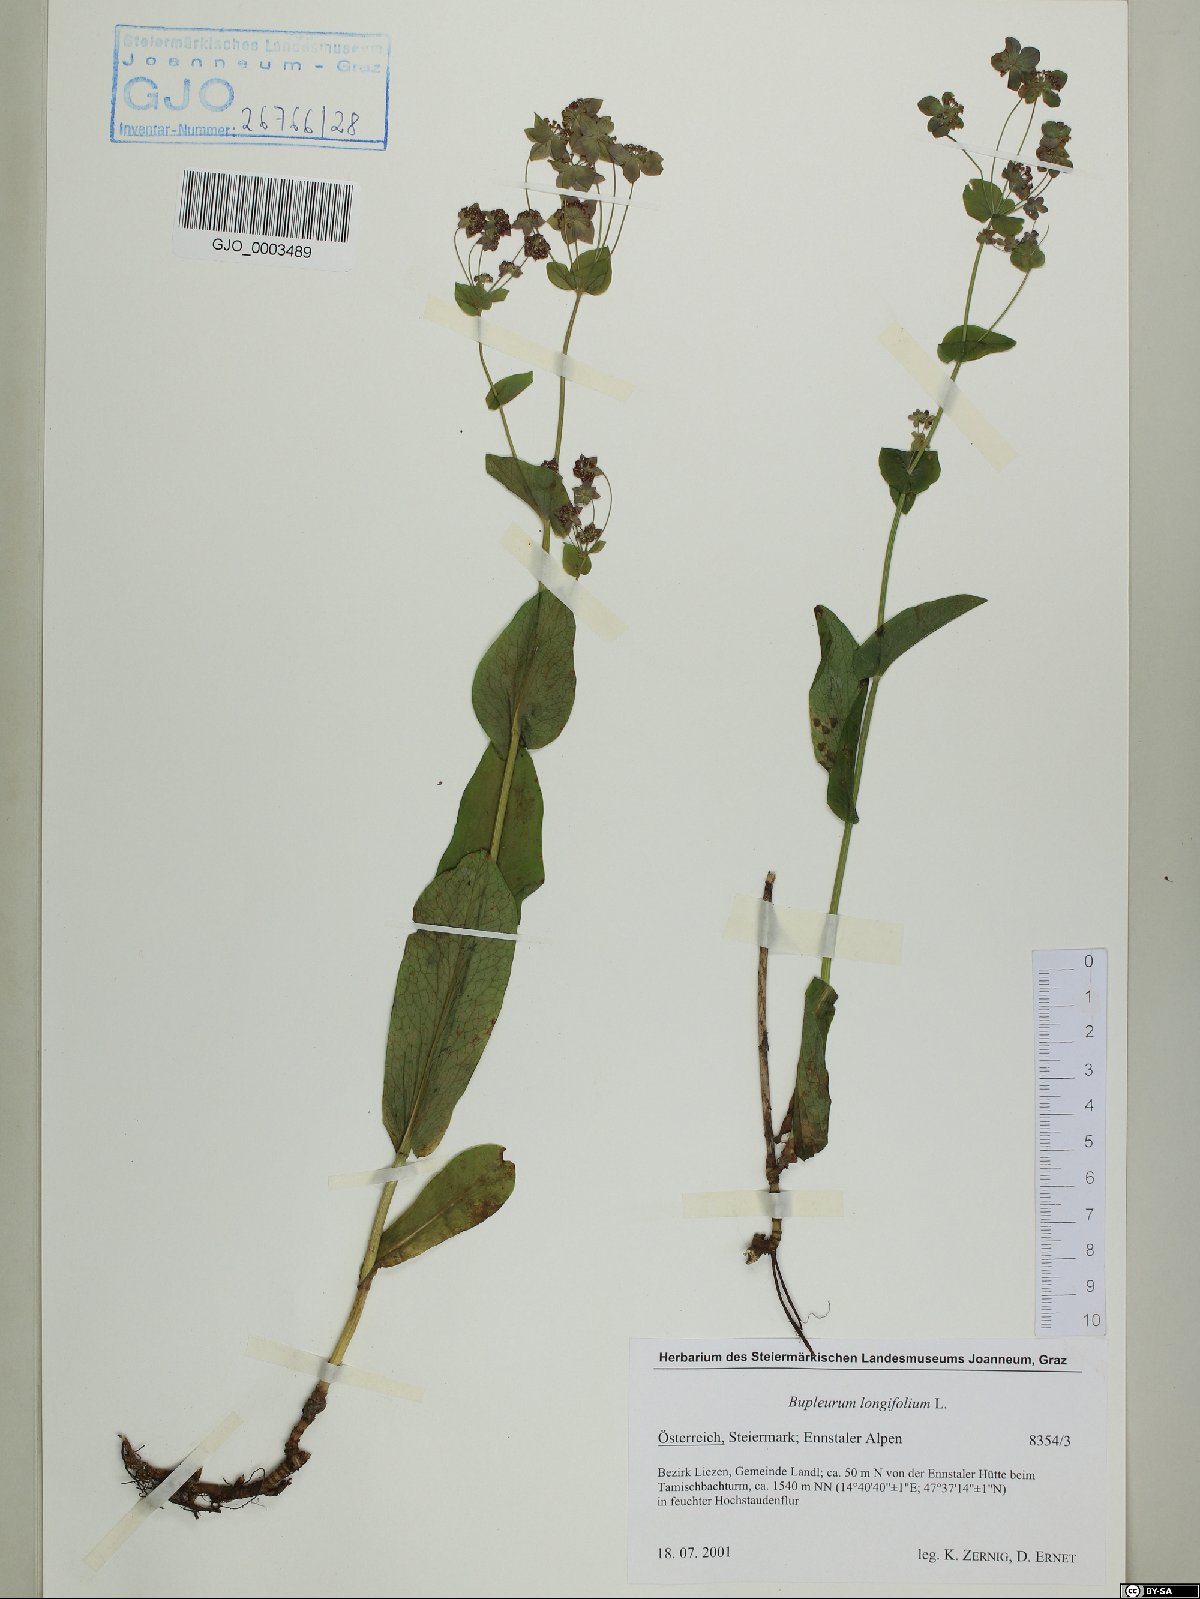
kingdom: Plantae
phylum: Tracheophyta
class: Magnoliopsida
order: Apiales
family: Apiaceae
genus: Bupleurum
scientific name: Bupleurum longifolium
